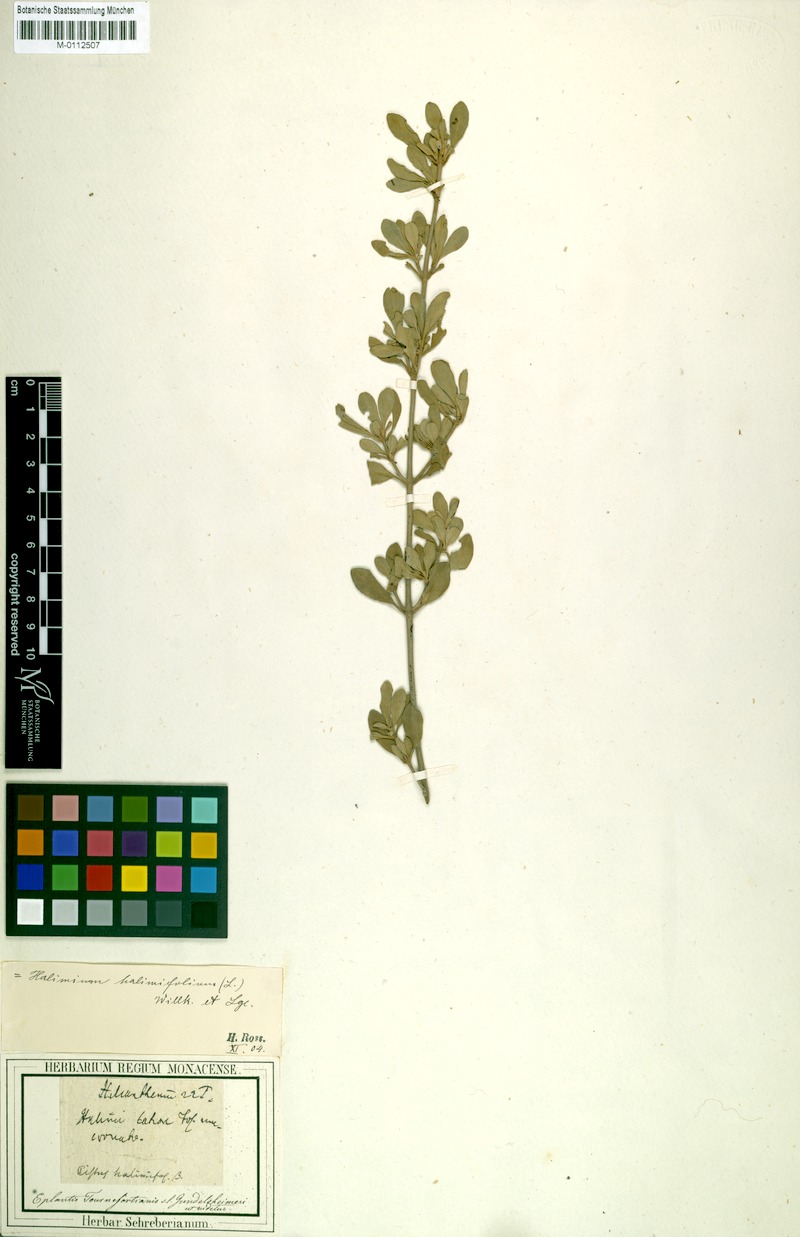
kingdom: Plantae
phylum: Tracheophyta
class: Magnoliopsida
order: Malvales
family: Cistaceae
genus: Halimium
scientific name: Halimium halimifolium
